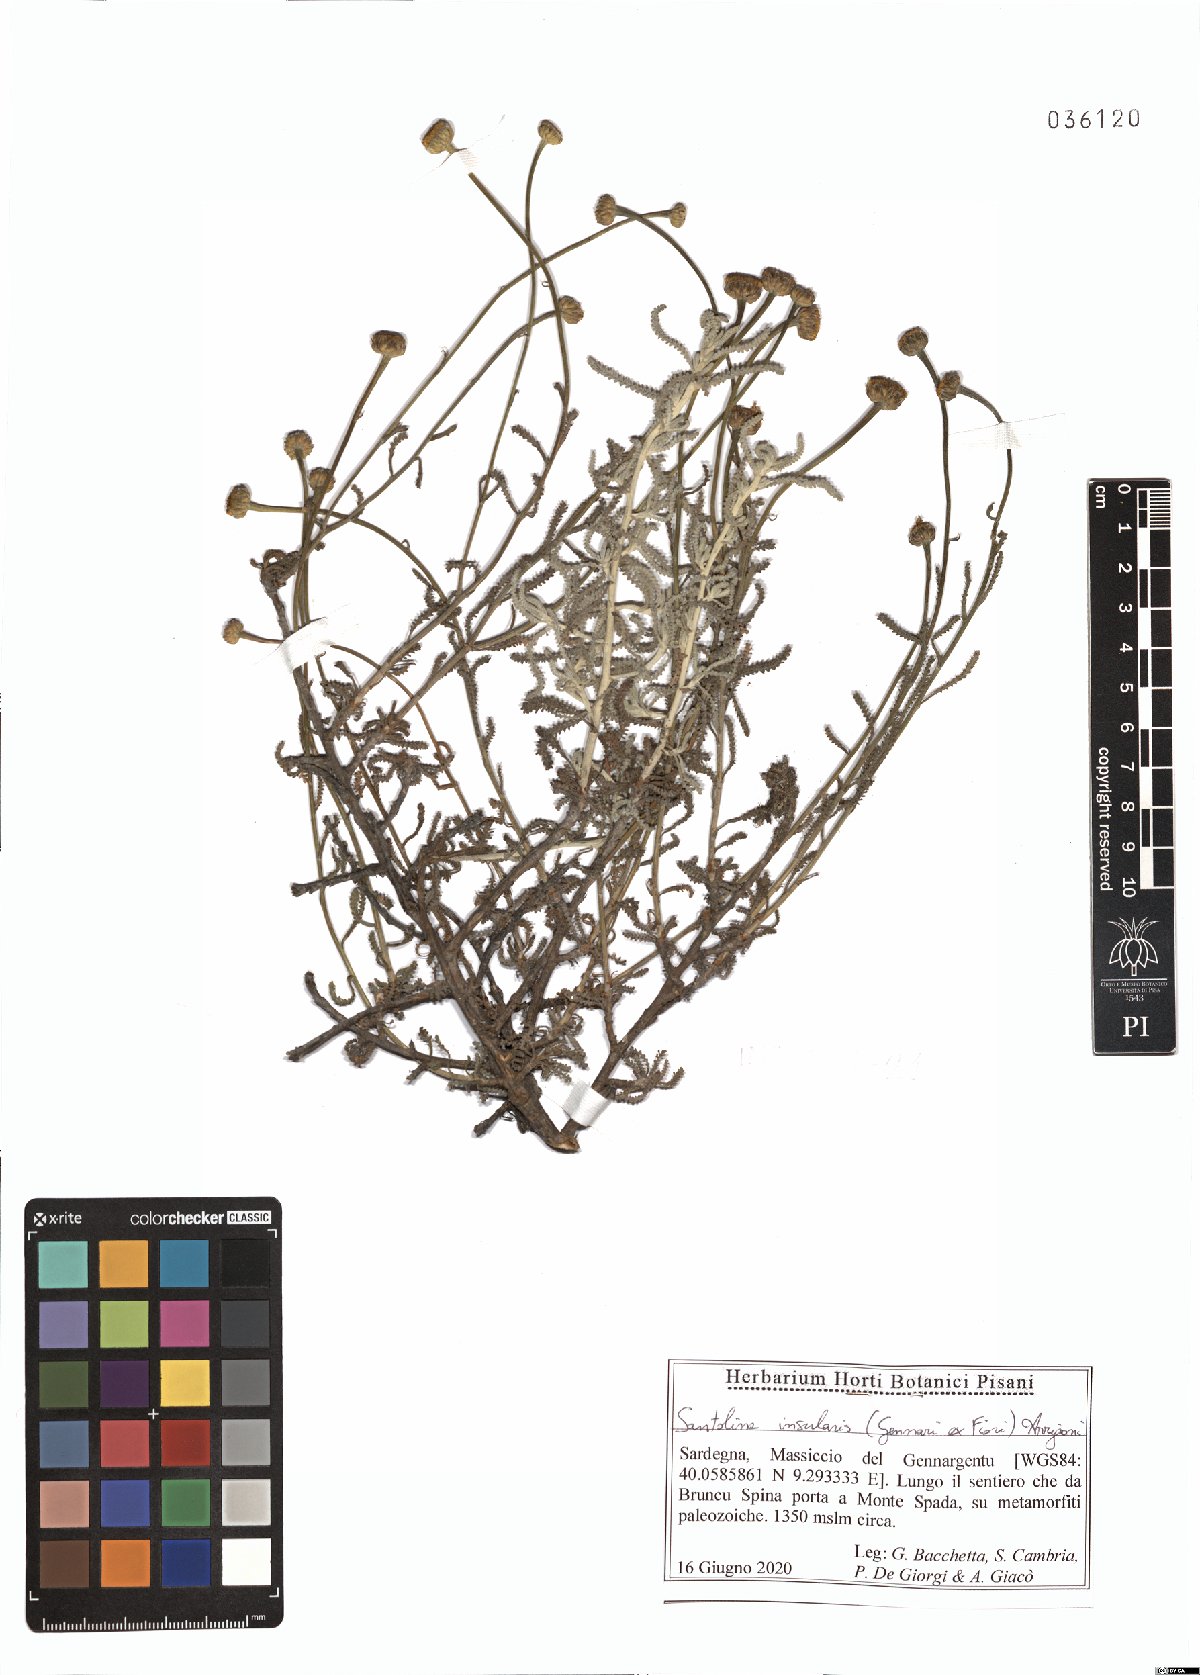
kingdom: Plantae
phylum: Tracheophyta
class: Magnoliopsida
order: Asterales
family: Asteraceae
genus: Santolina
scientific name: Santolina insularis
